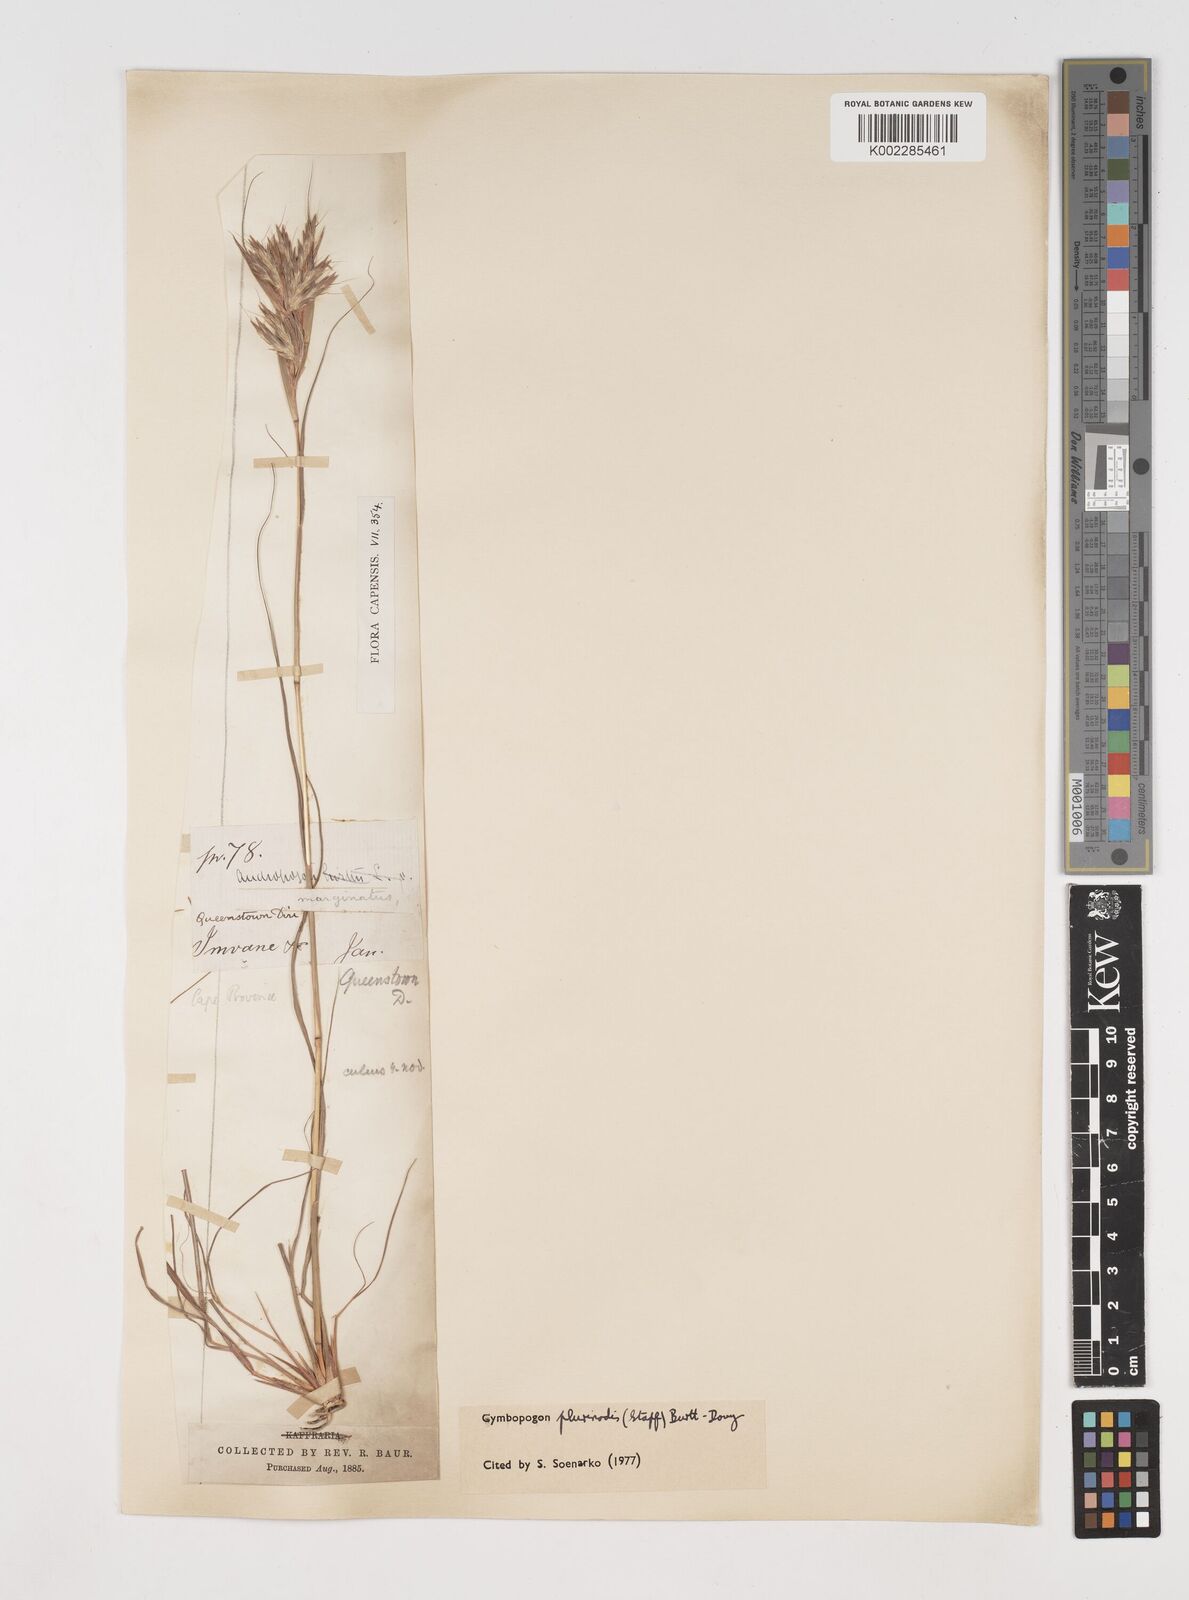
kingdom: Plantae
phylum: Tracheophyta
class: Liliopsida
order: Poales
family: Poaceae
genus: Cymbopogon
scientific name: Cymbopogon pospischilii
